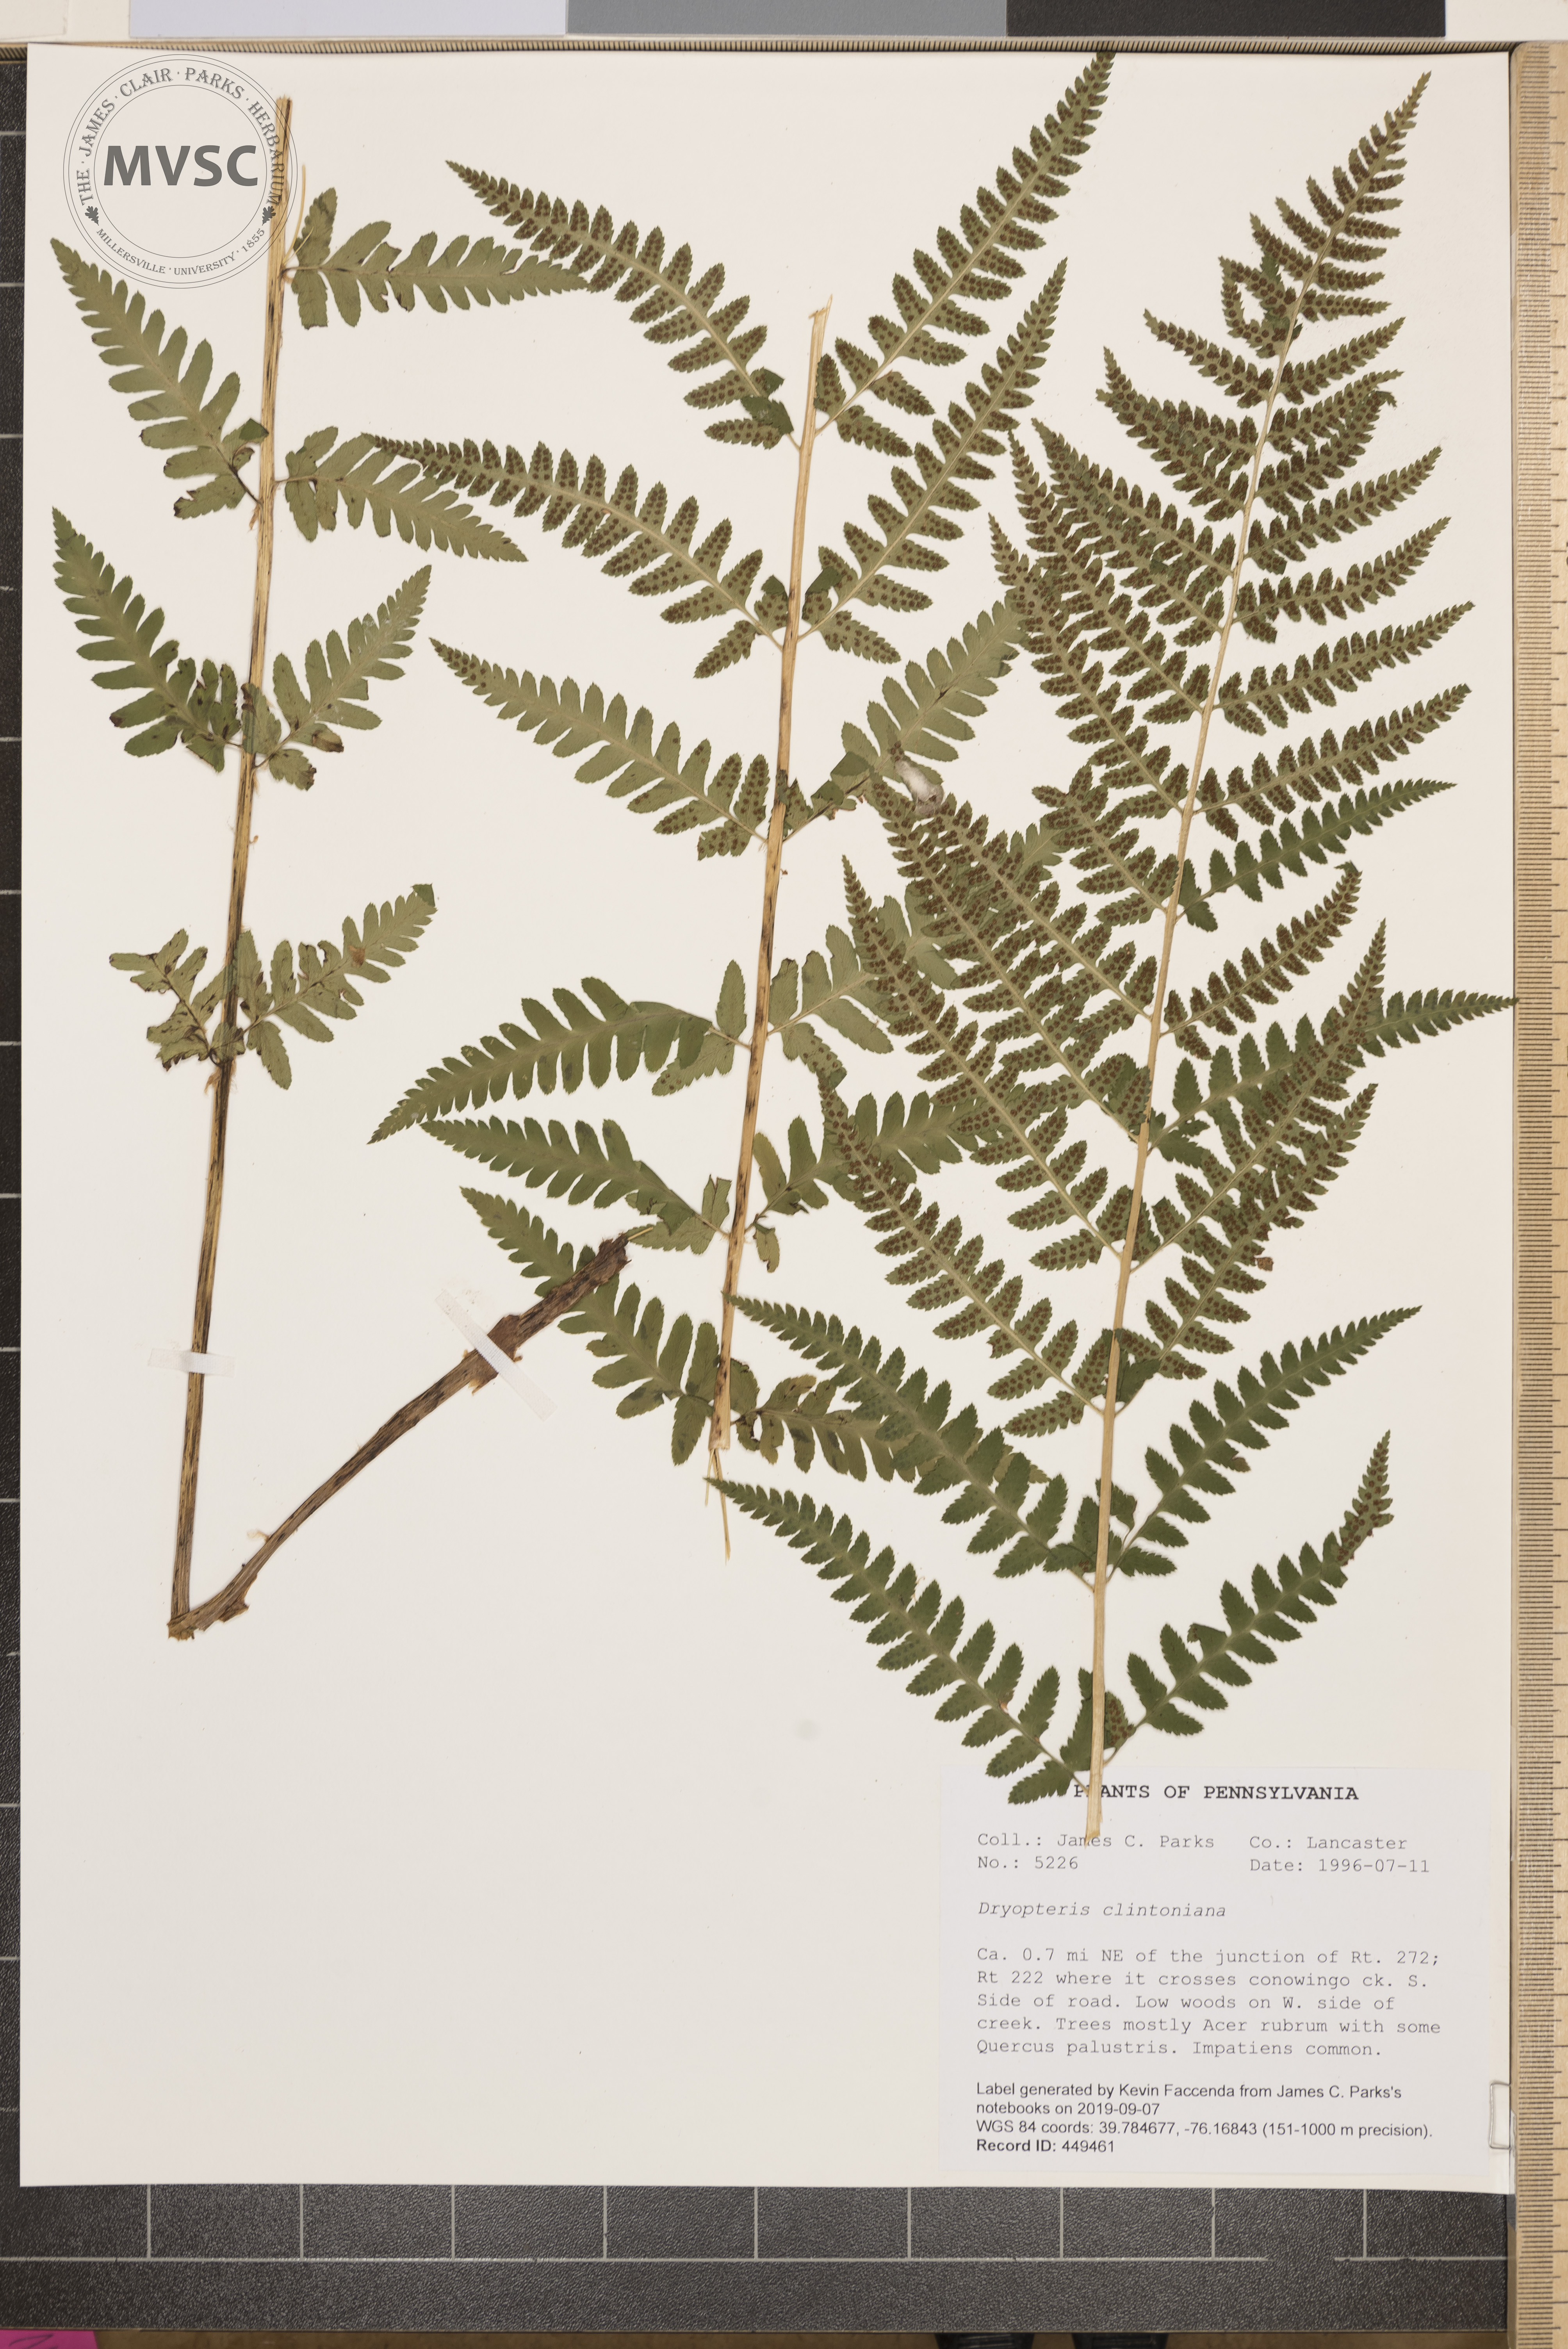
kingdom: Plantae
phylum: Tracheophyta
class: Polypodiopsida
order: Polypodiales
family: Dryopteridaceae
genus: Dryopteris
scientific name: Dryopteris clintoniana
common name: Clinton's wood fern
